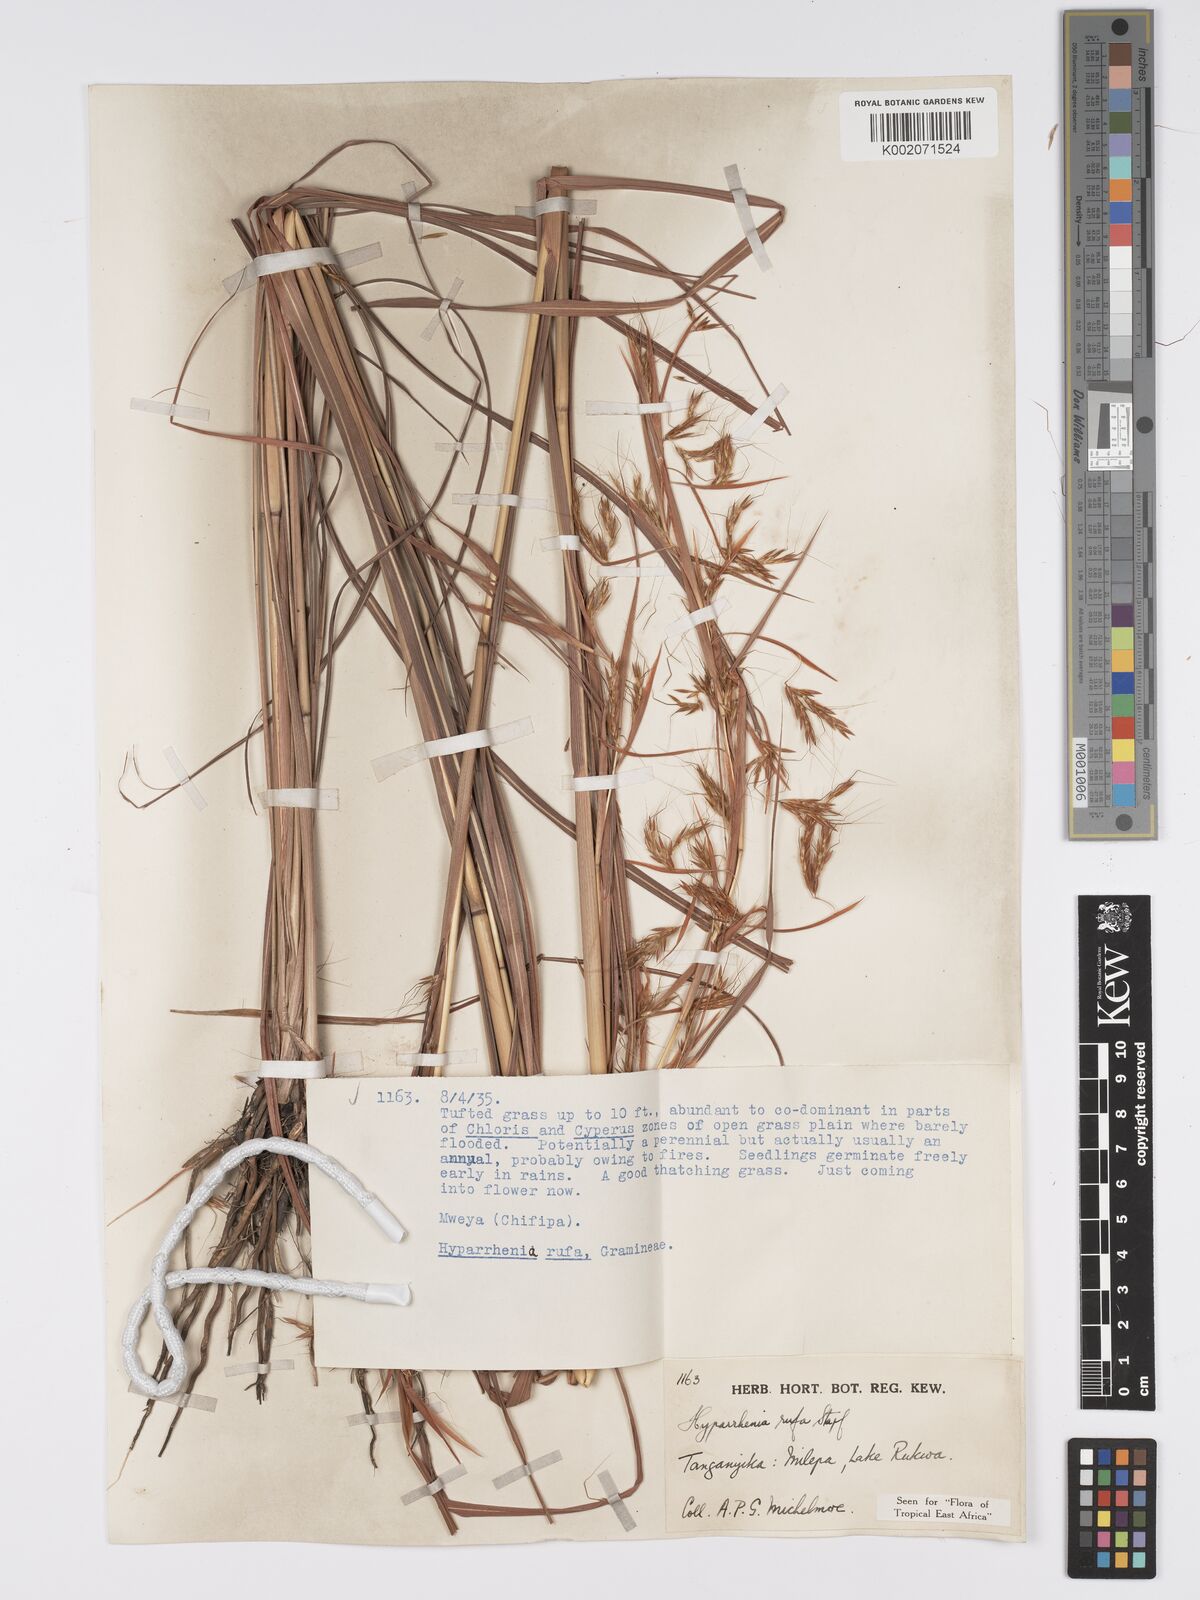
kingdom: Plantae
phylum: Tracheophyta
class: Liliopsida
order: Poales
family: Poaceae
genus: Hyparrhenia
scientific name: Hyparrhenia rufa
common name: Jaraguagrass
